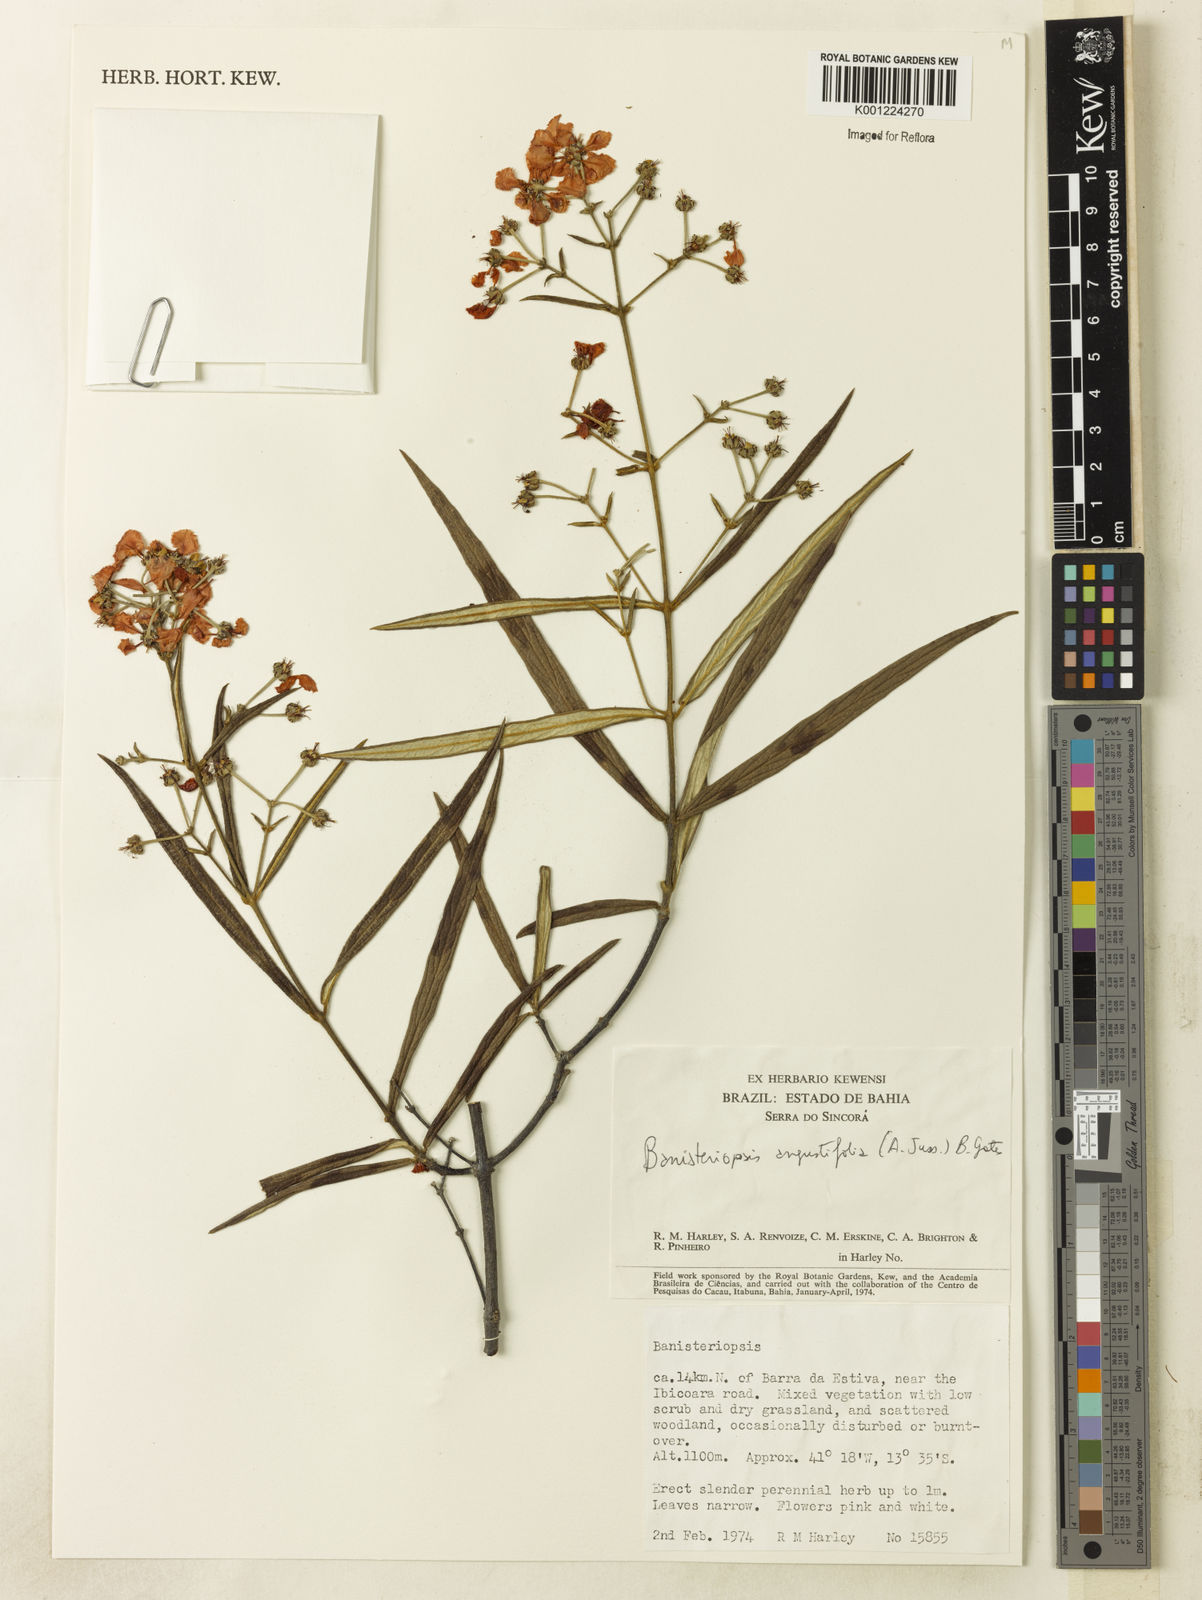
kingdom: Plantae
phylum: Tracheophyta
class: Magnoliopsida
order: Malpighiales
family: Malpighiaceae
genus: Banisteriopsis
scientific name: Banisteriopsis angustifolia
